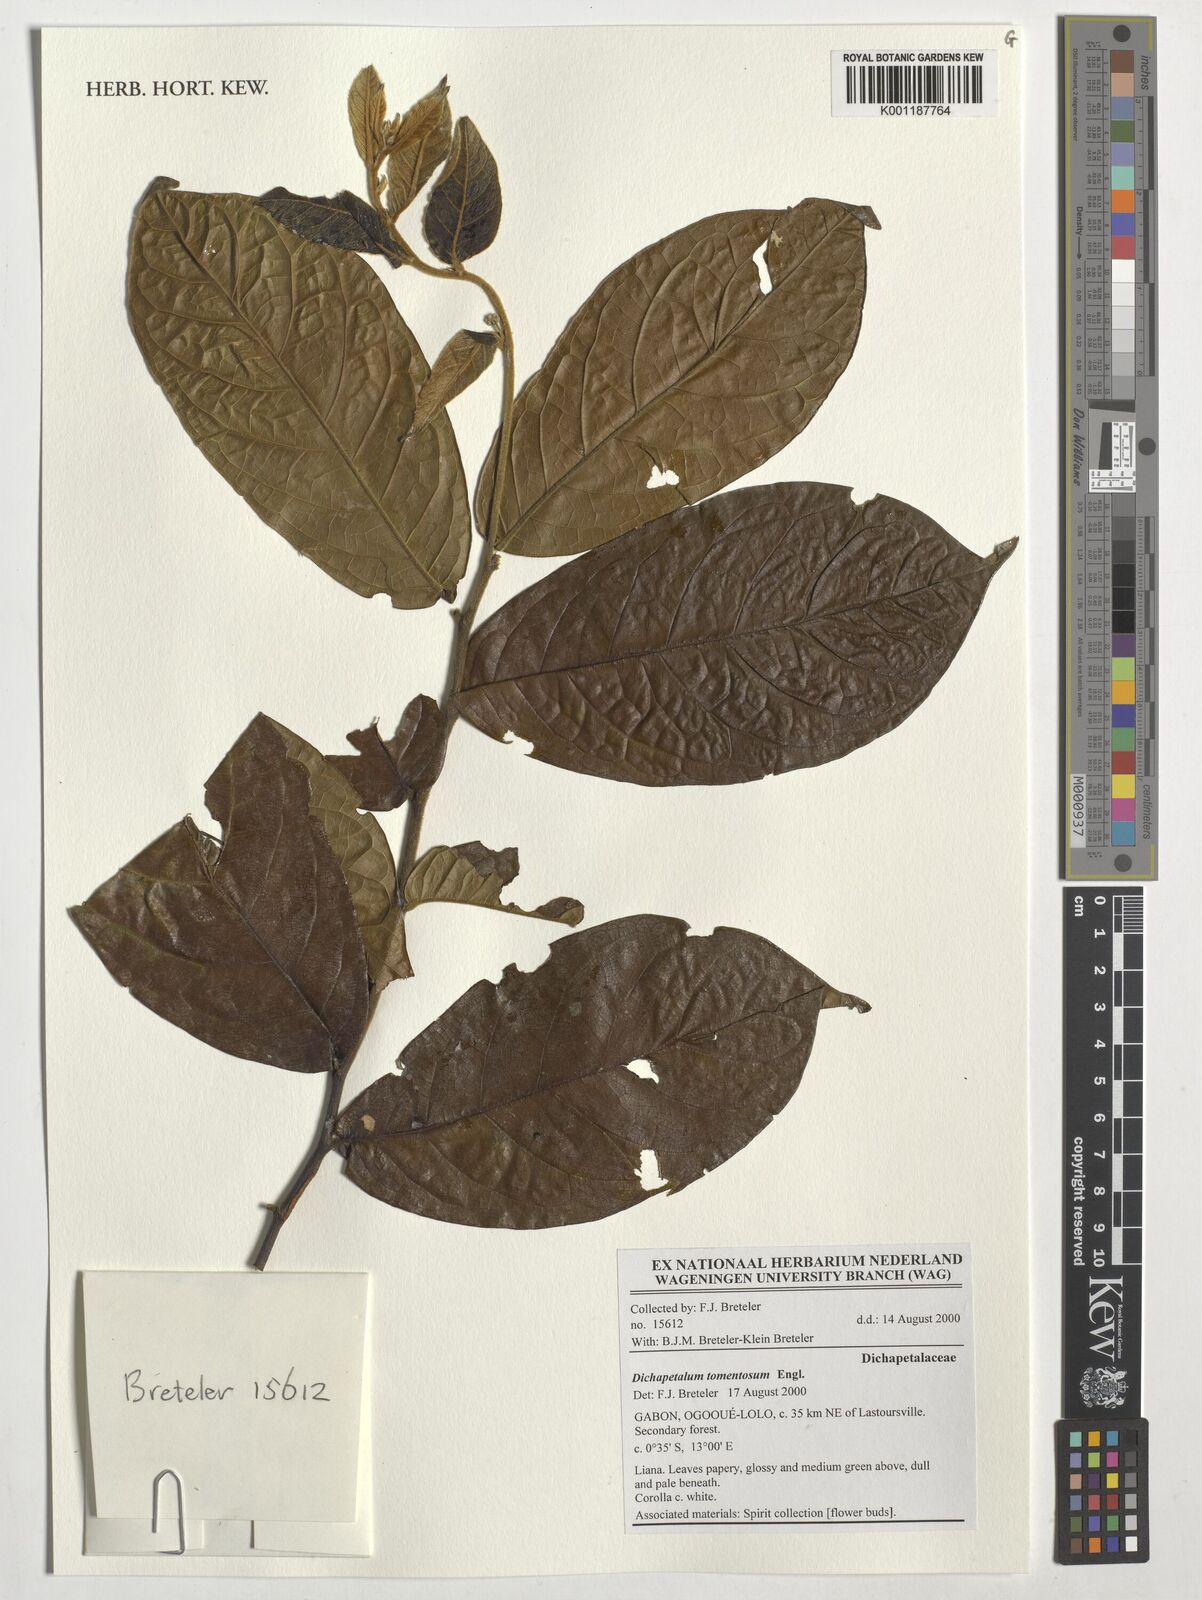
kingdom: Plantae
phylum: Tracheophyta
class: Magnoliopsida
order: Malpighiales
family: Dichapetalaceae
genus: Dichapetalum
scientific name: Dichapetalum tomentosum
